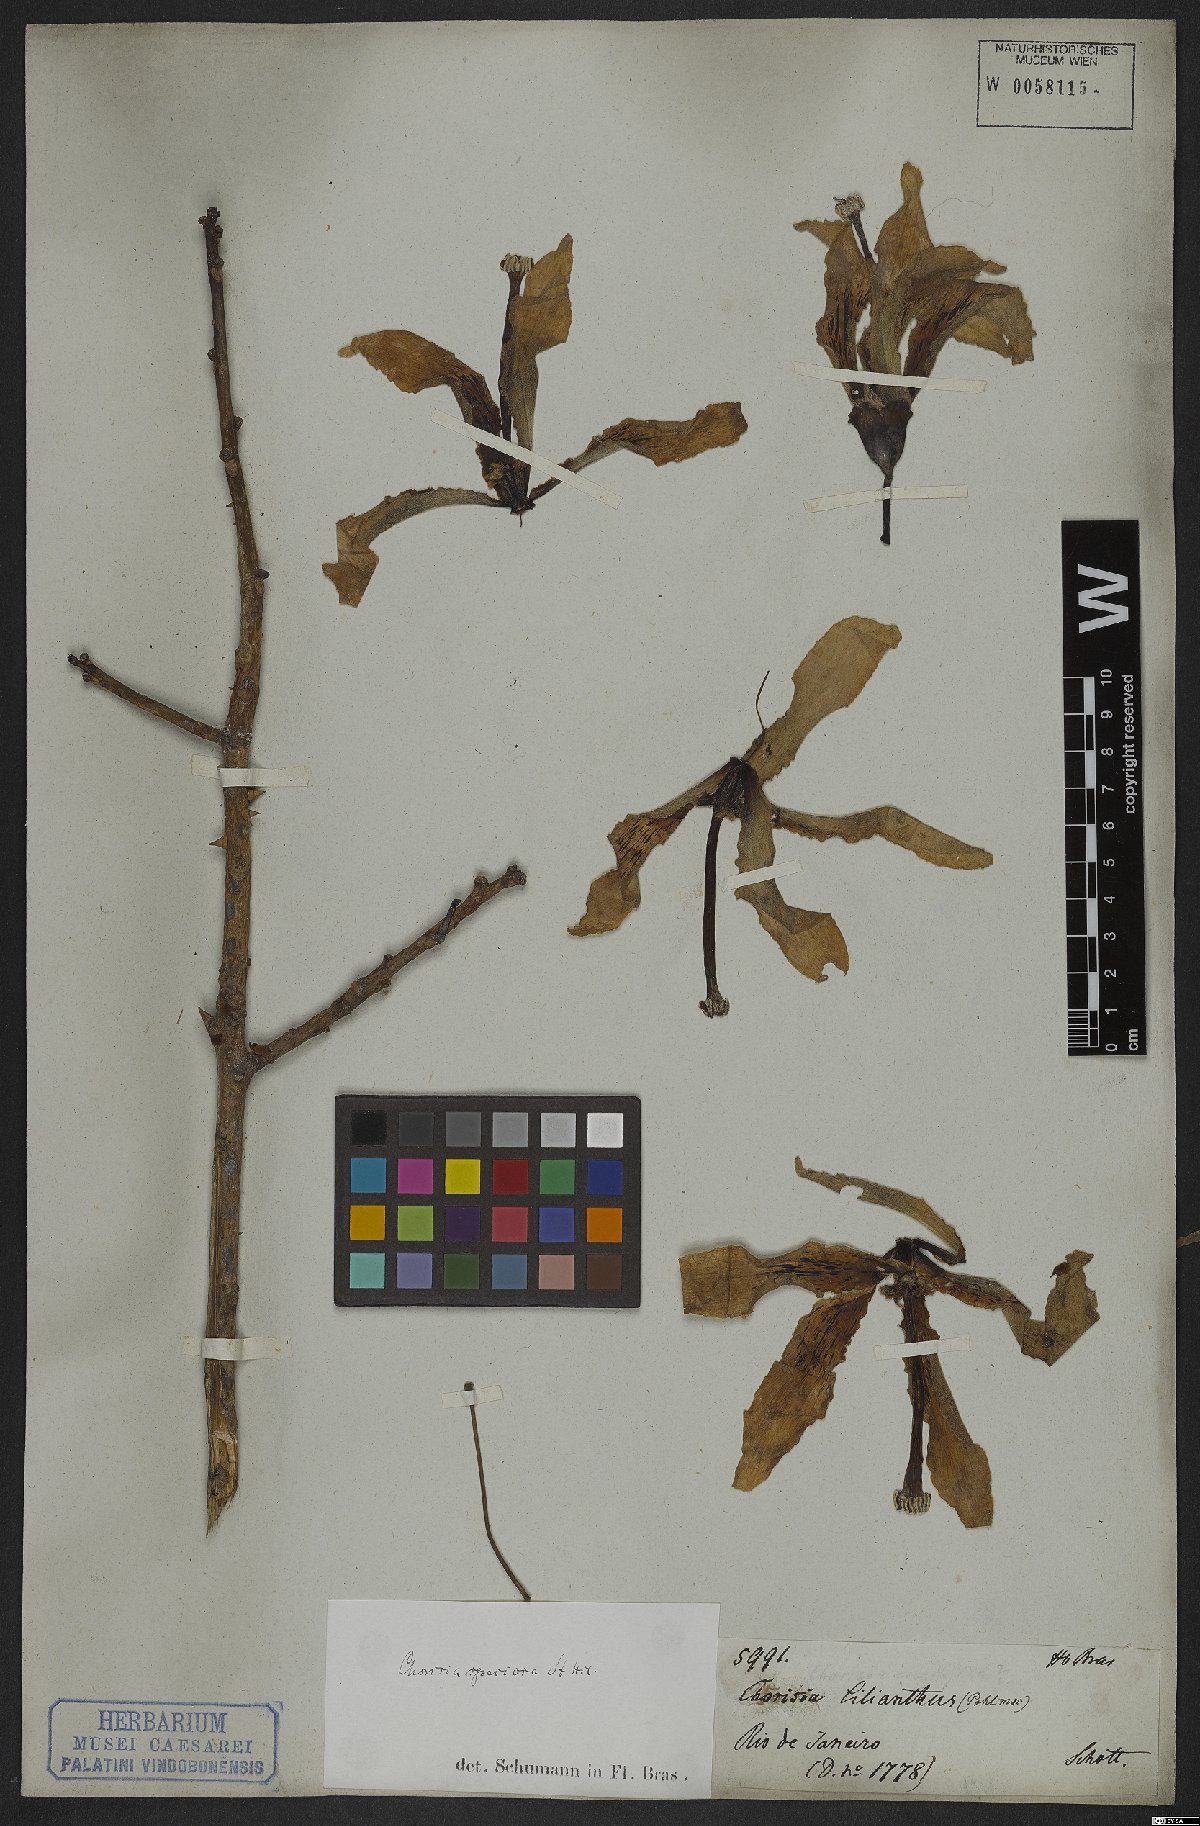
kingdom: Plantae
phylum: Tracheophyta
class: Magnoliopsida
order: Malvales
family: Malvaceae
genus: Ceiba
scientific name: Ceiba speciosa
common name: Silk-floss tree
